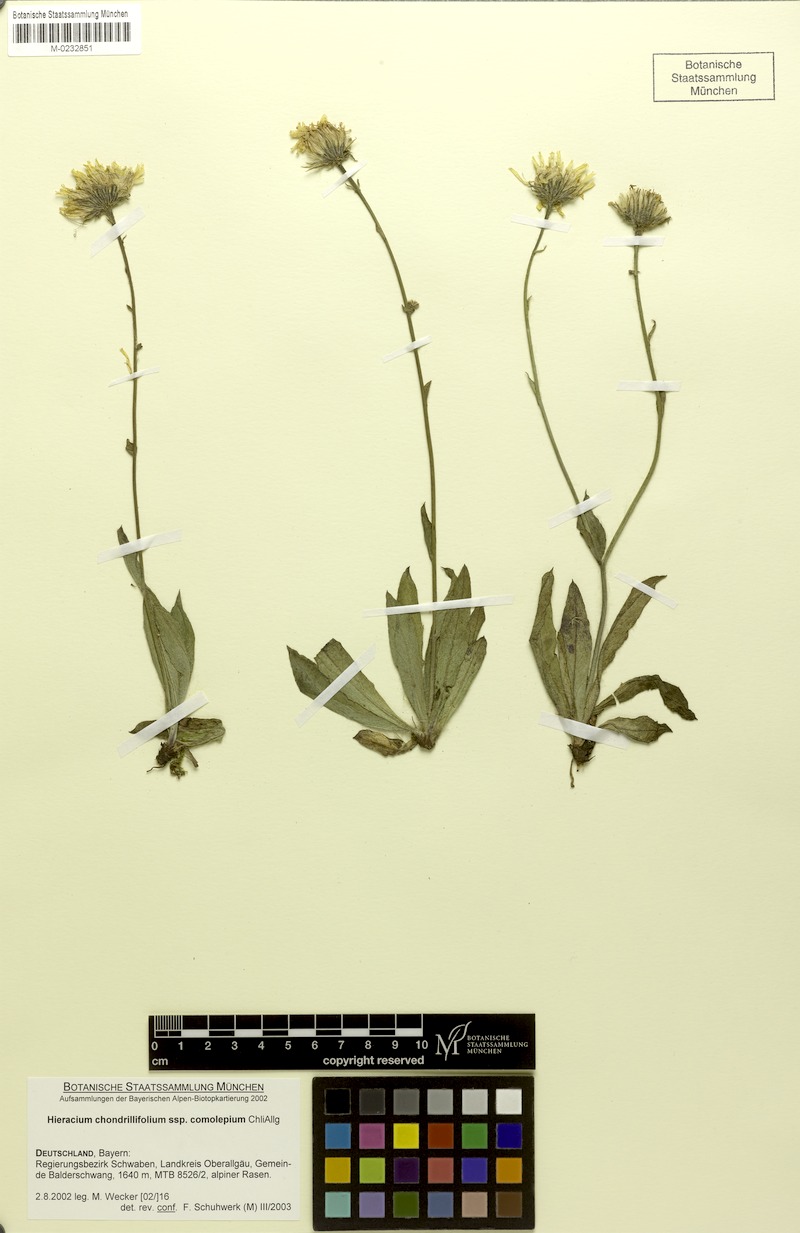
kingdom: Plantae
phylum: Tracheophyta
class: Magnoliopsida
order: Asterales
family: Asteraceae
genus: Hieracium
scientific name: Hieracium subspeciosum
